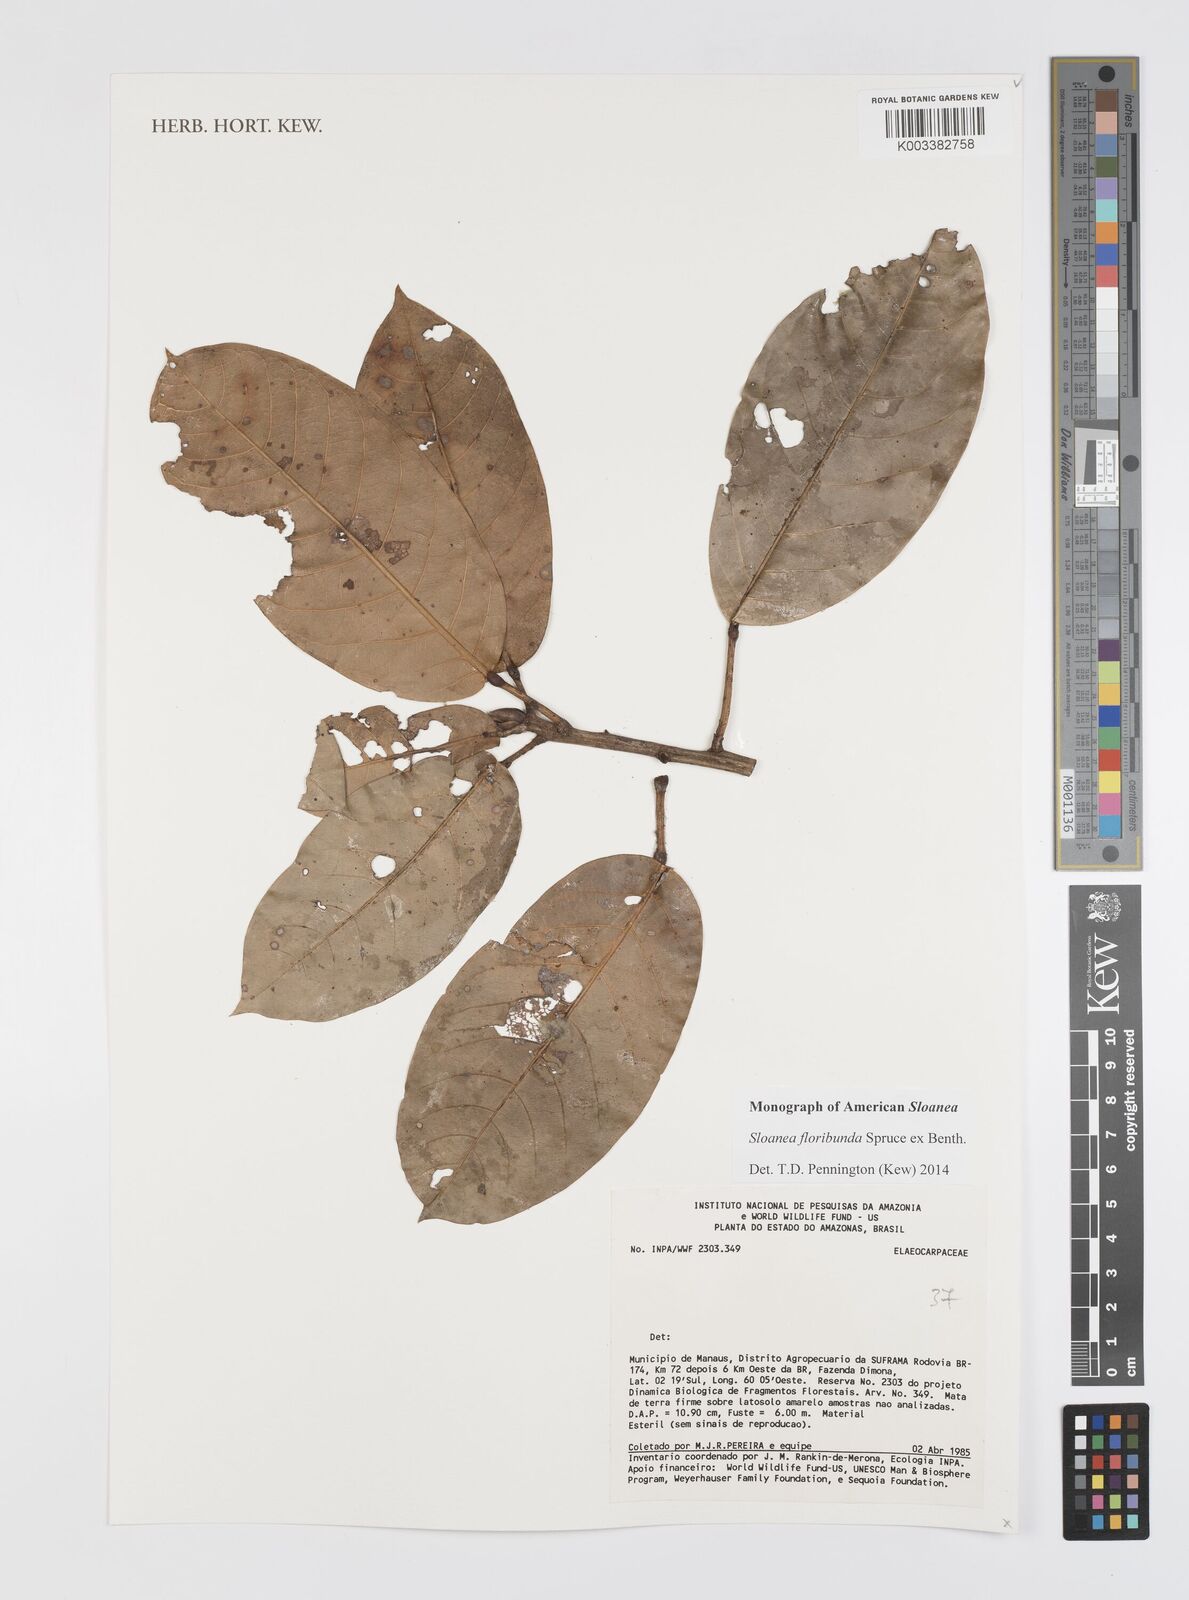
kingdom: Plantae
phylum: Tracheophyta
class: Magnoliopsida
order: Oxalidales
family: Elaeocarpaceae
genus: Sloanea
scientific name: Sloanea floribunda
